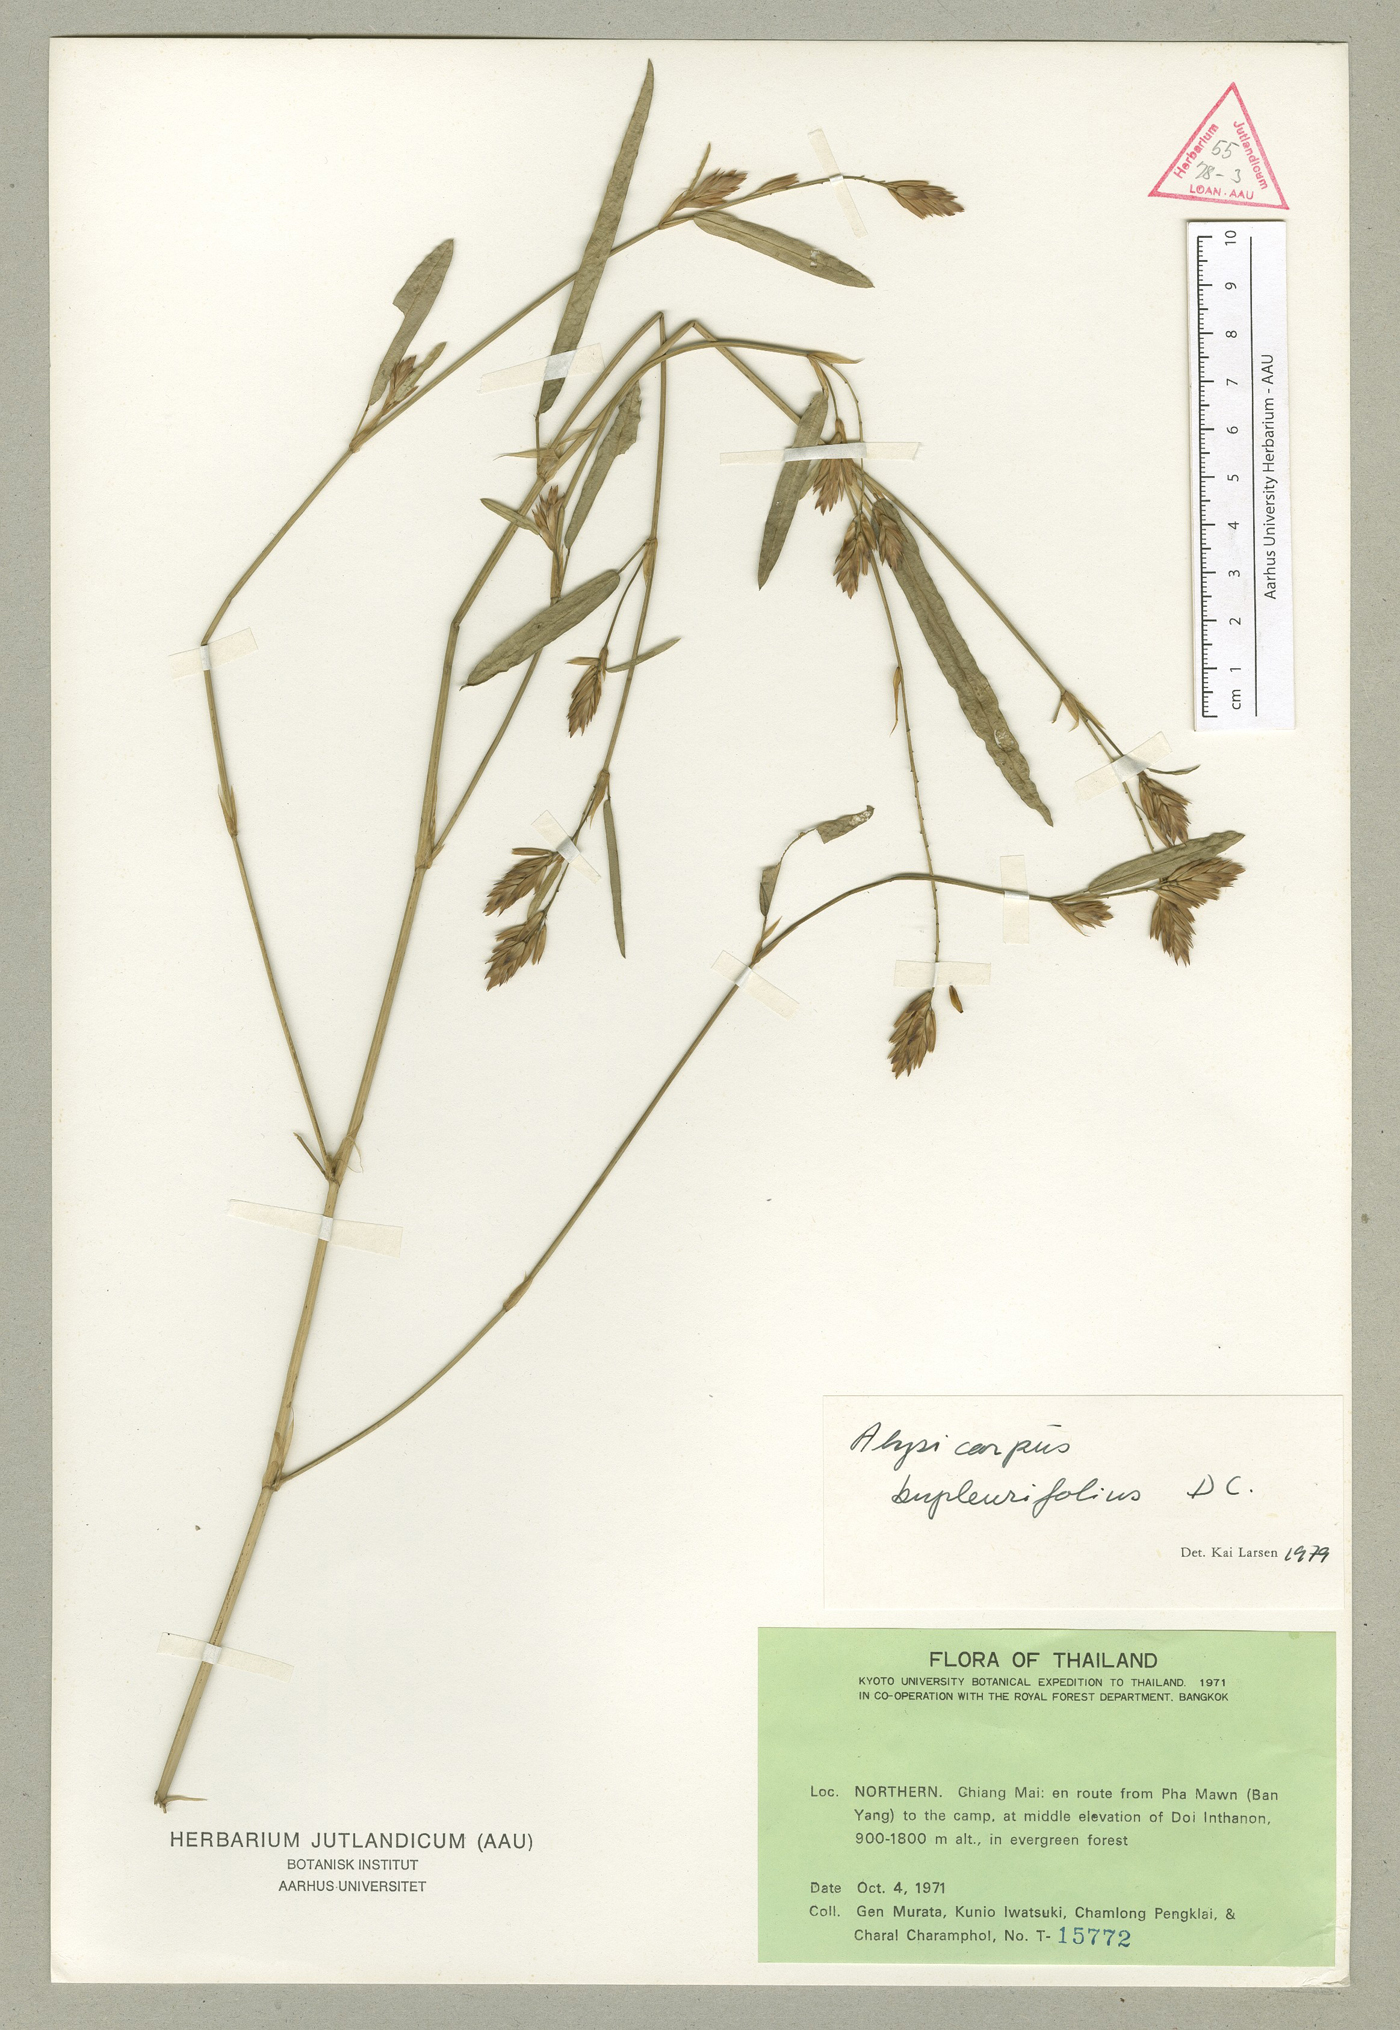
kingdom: Plantae
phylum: Tracheophyta
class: Magnoliopsida
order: Fabales
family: Fabaceae
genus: Alysicarpus
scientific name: Alysicarpus rugosus
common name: Red moneywort
